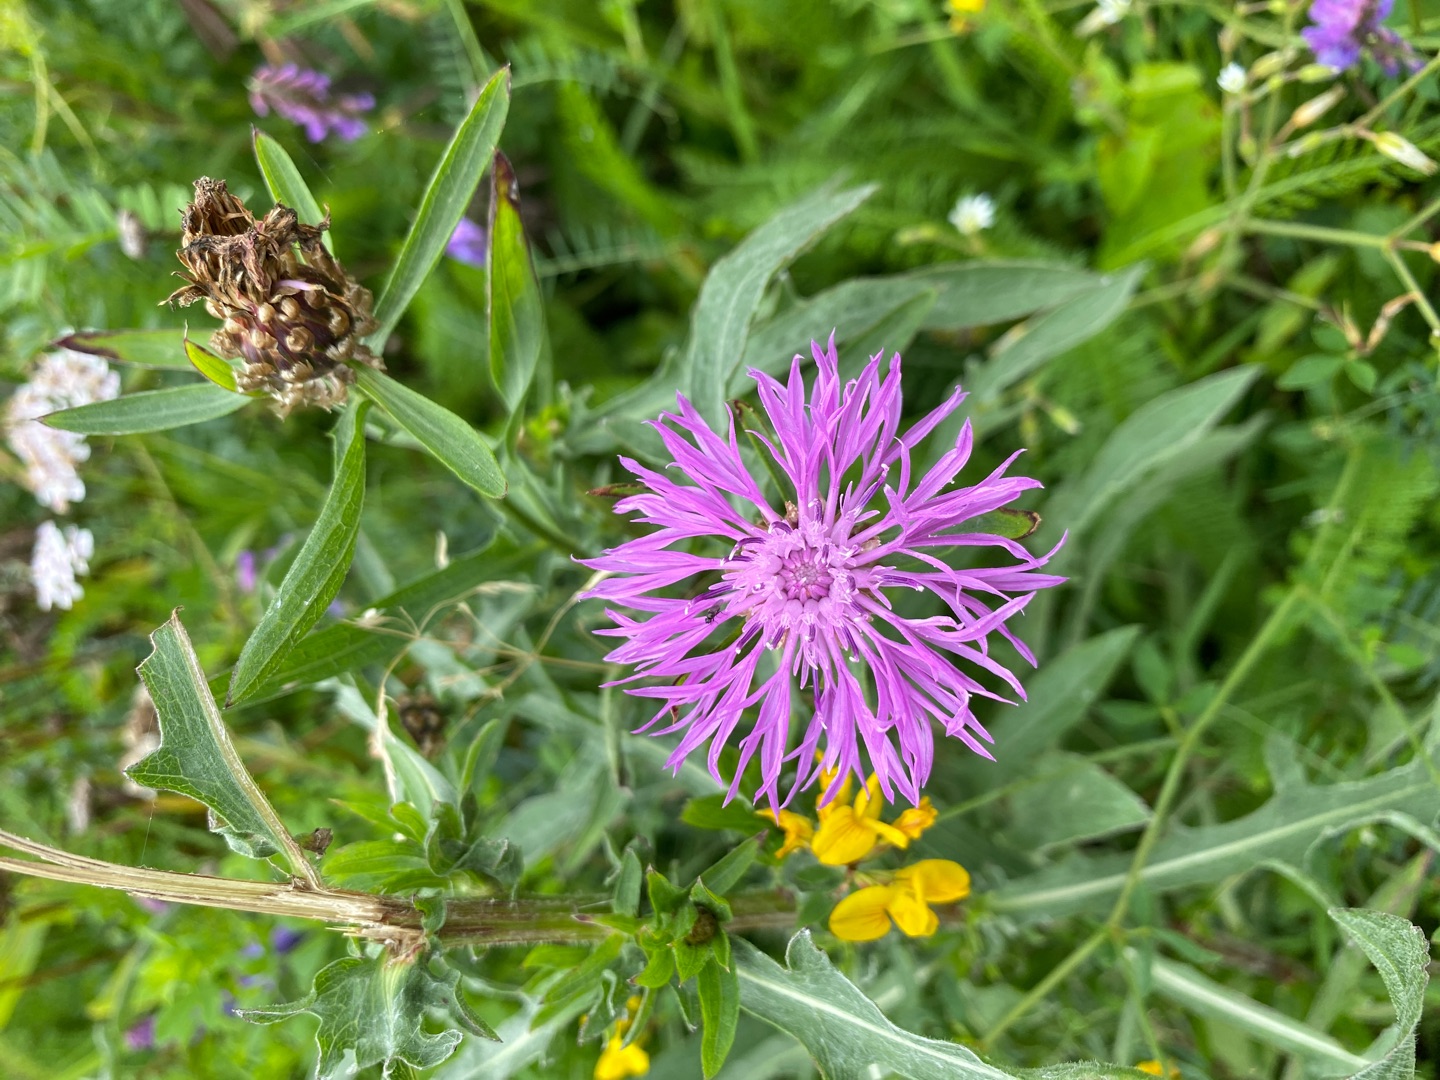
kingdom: Plantae
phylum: Tracheophyta
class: Magnoliopsida
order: Asterales
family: Asteraceae
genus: Centaurea
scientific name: Centaurea jacea
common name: Almindelig knopurt
